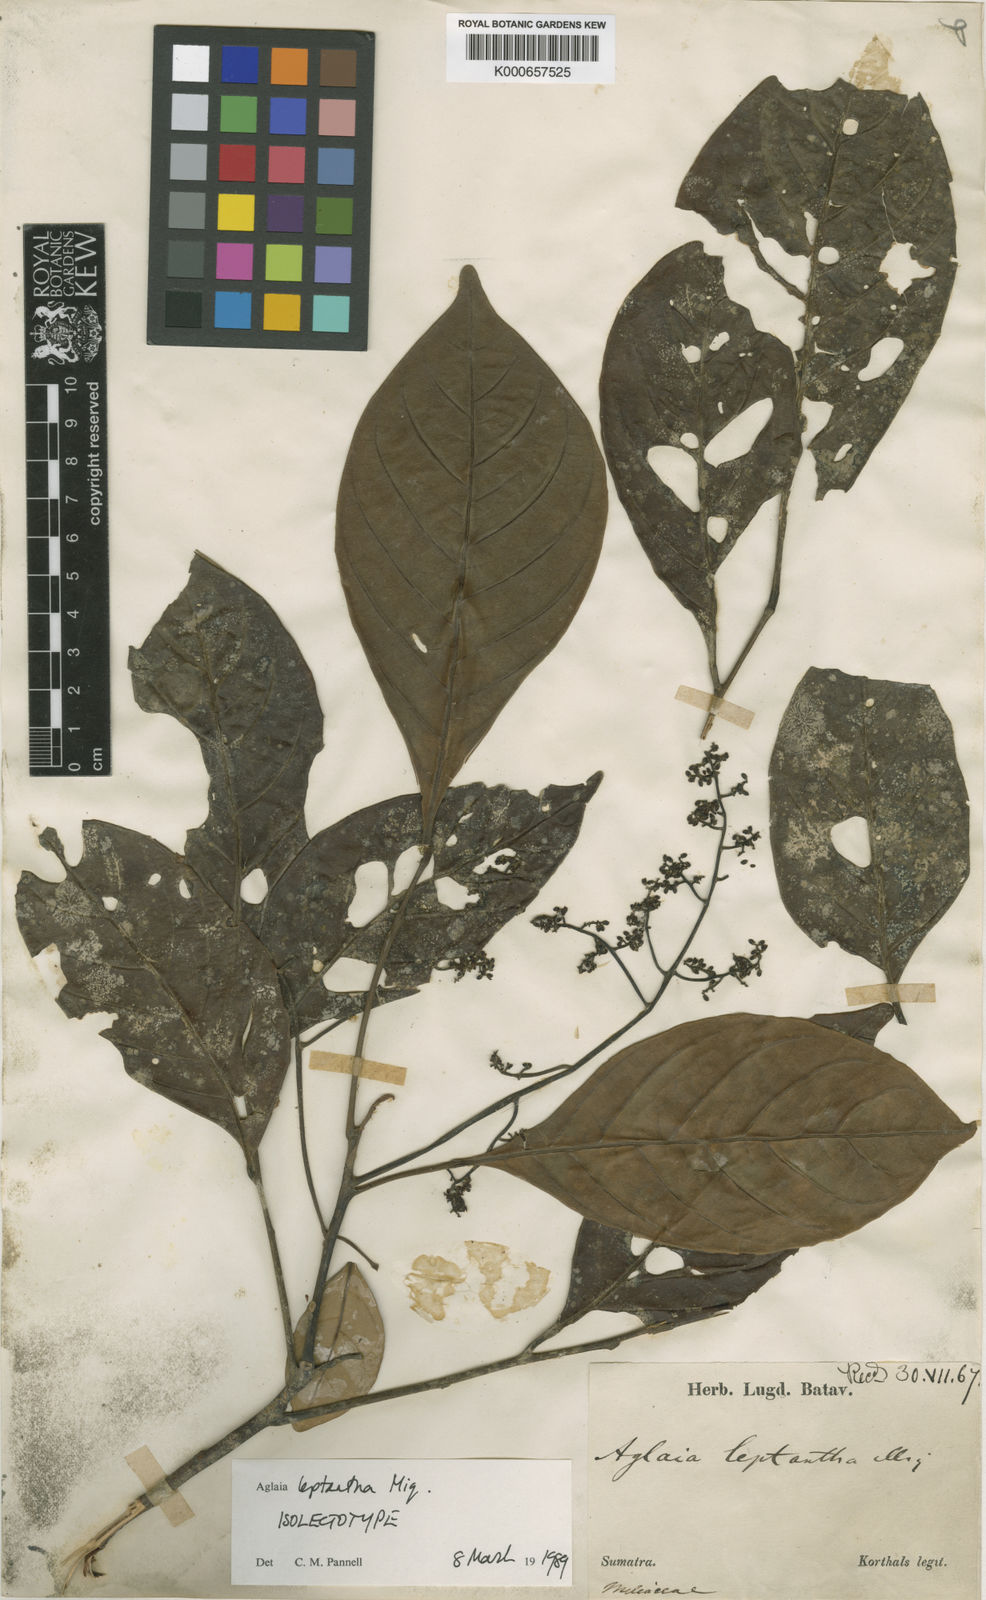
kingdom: Plantae
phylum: Tracheophyta
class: Magnoliopsida
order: Sapindales
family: Meliaceae
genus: Aglaia
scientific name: Aglaia leptantha
